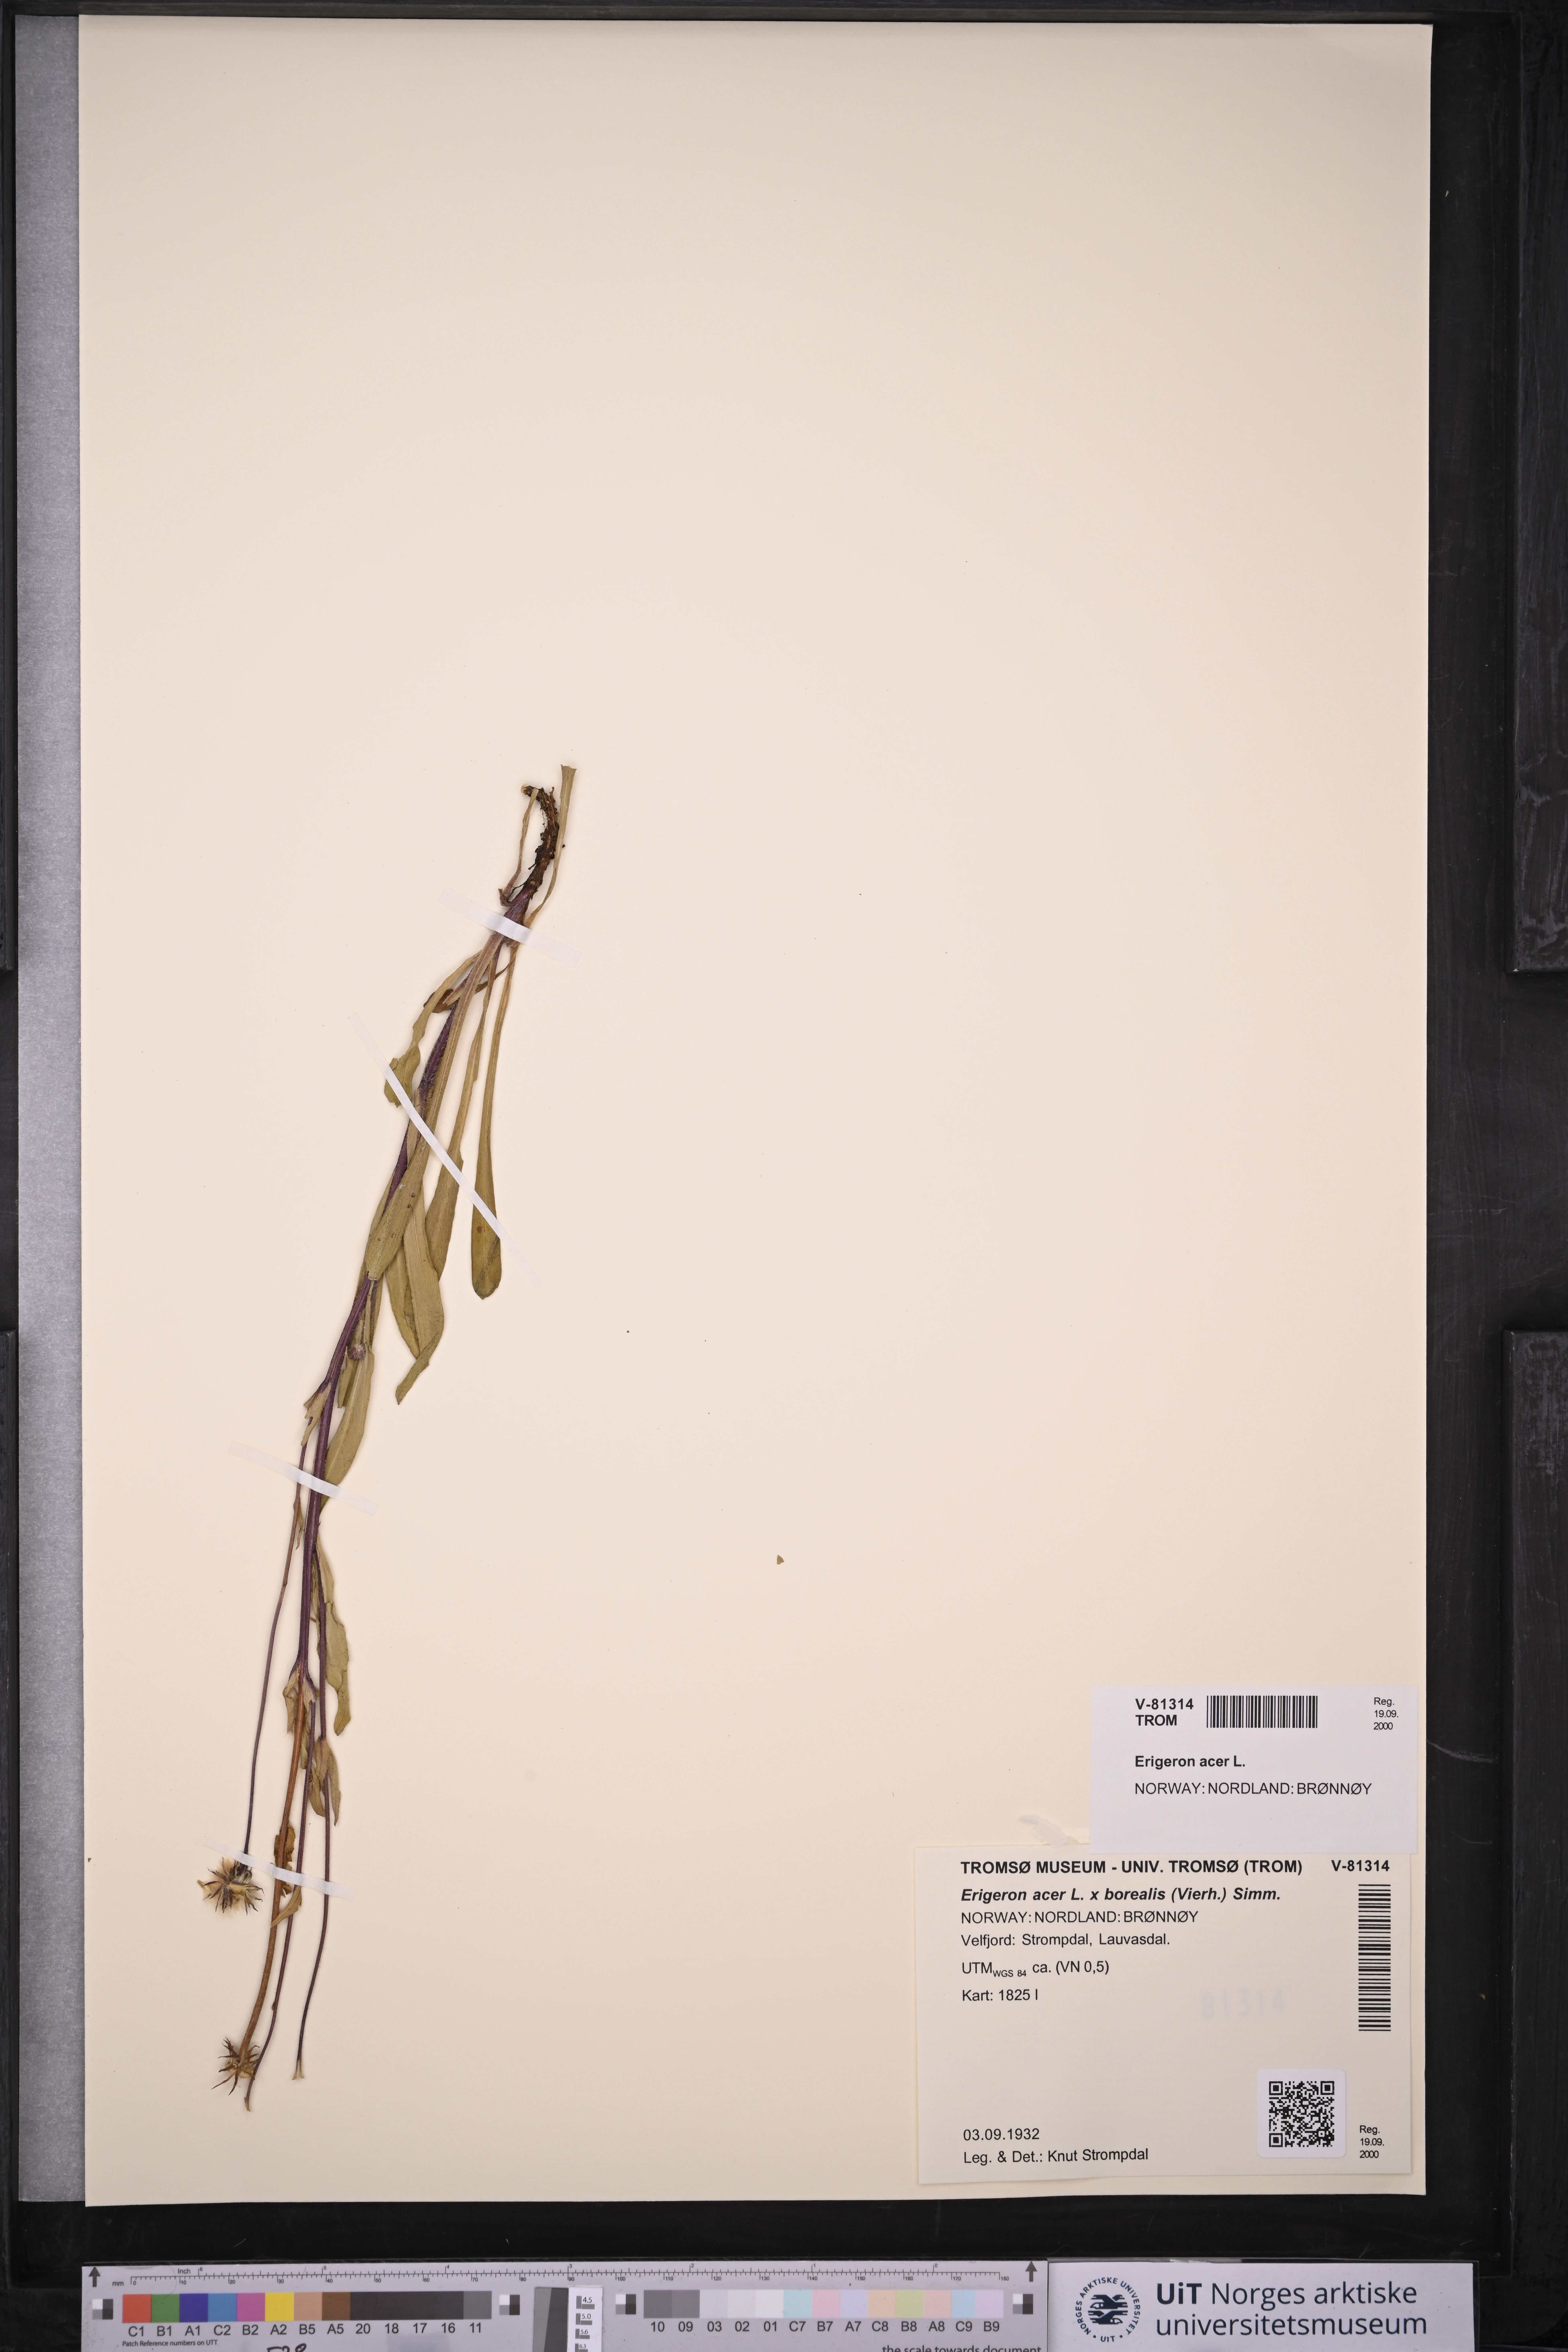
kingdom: Plantae
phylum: Tracheophyta
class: Magnoliopsida
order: Asterales
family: Asteraceae
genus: Erigeron
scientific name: Erigeron acris
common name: Blue fleabane
